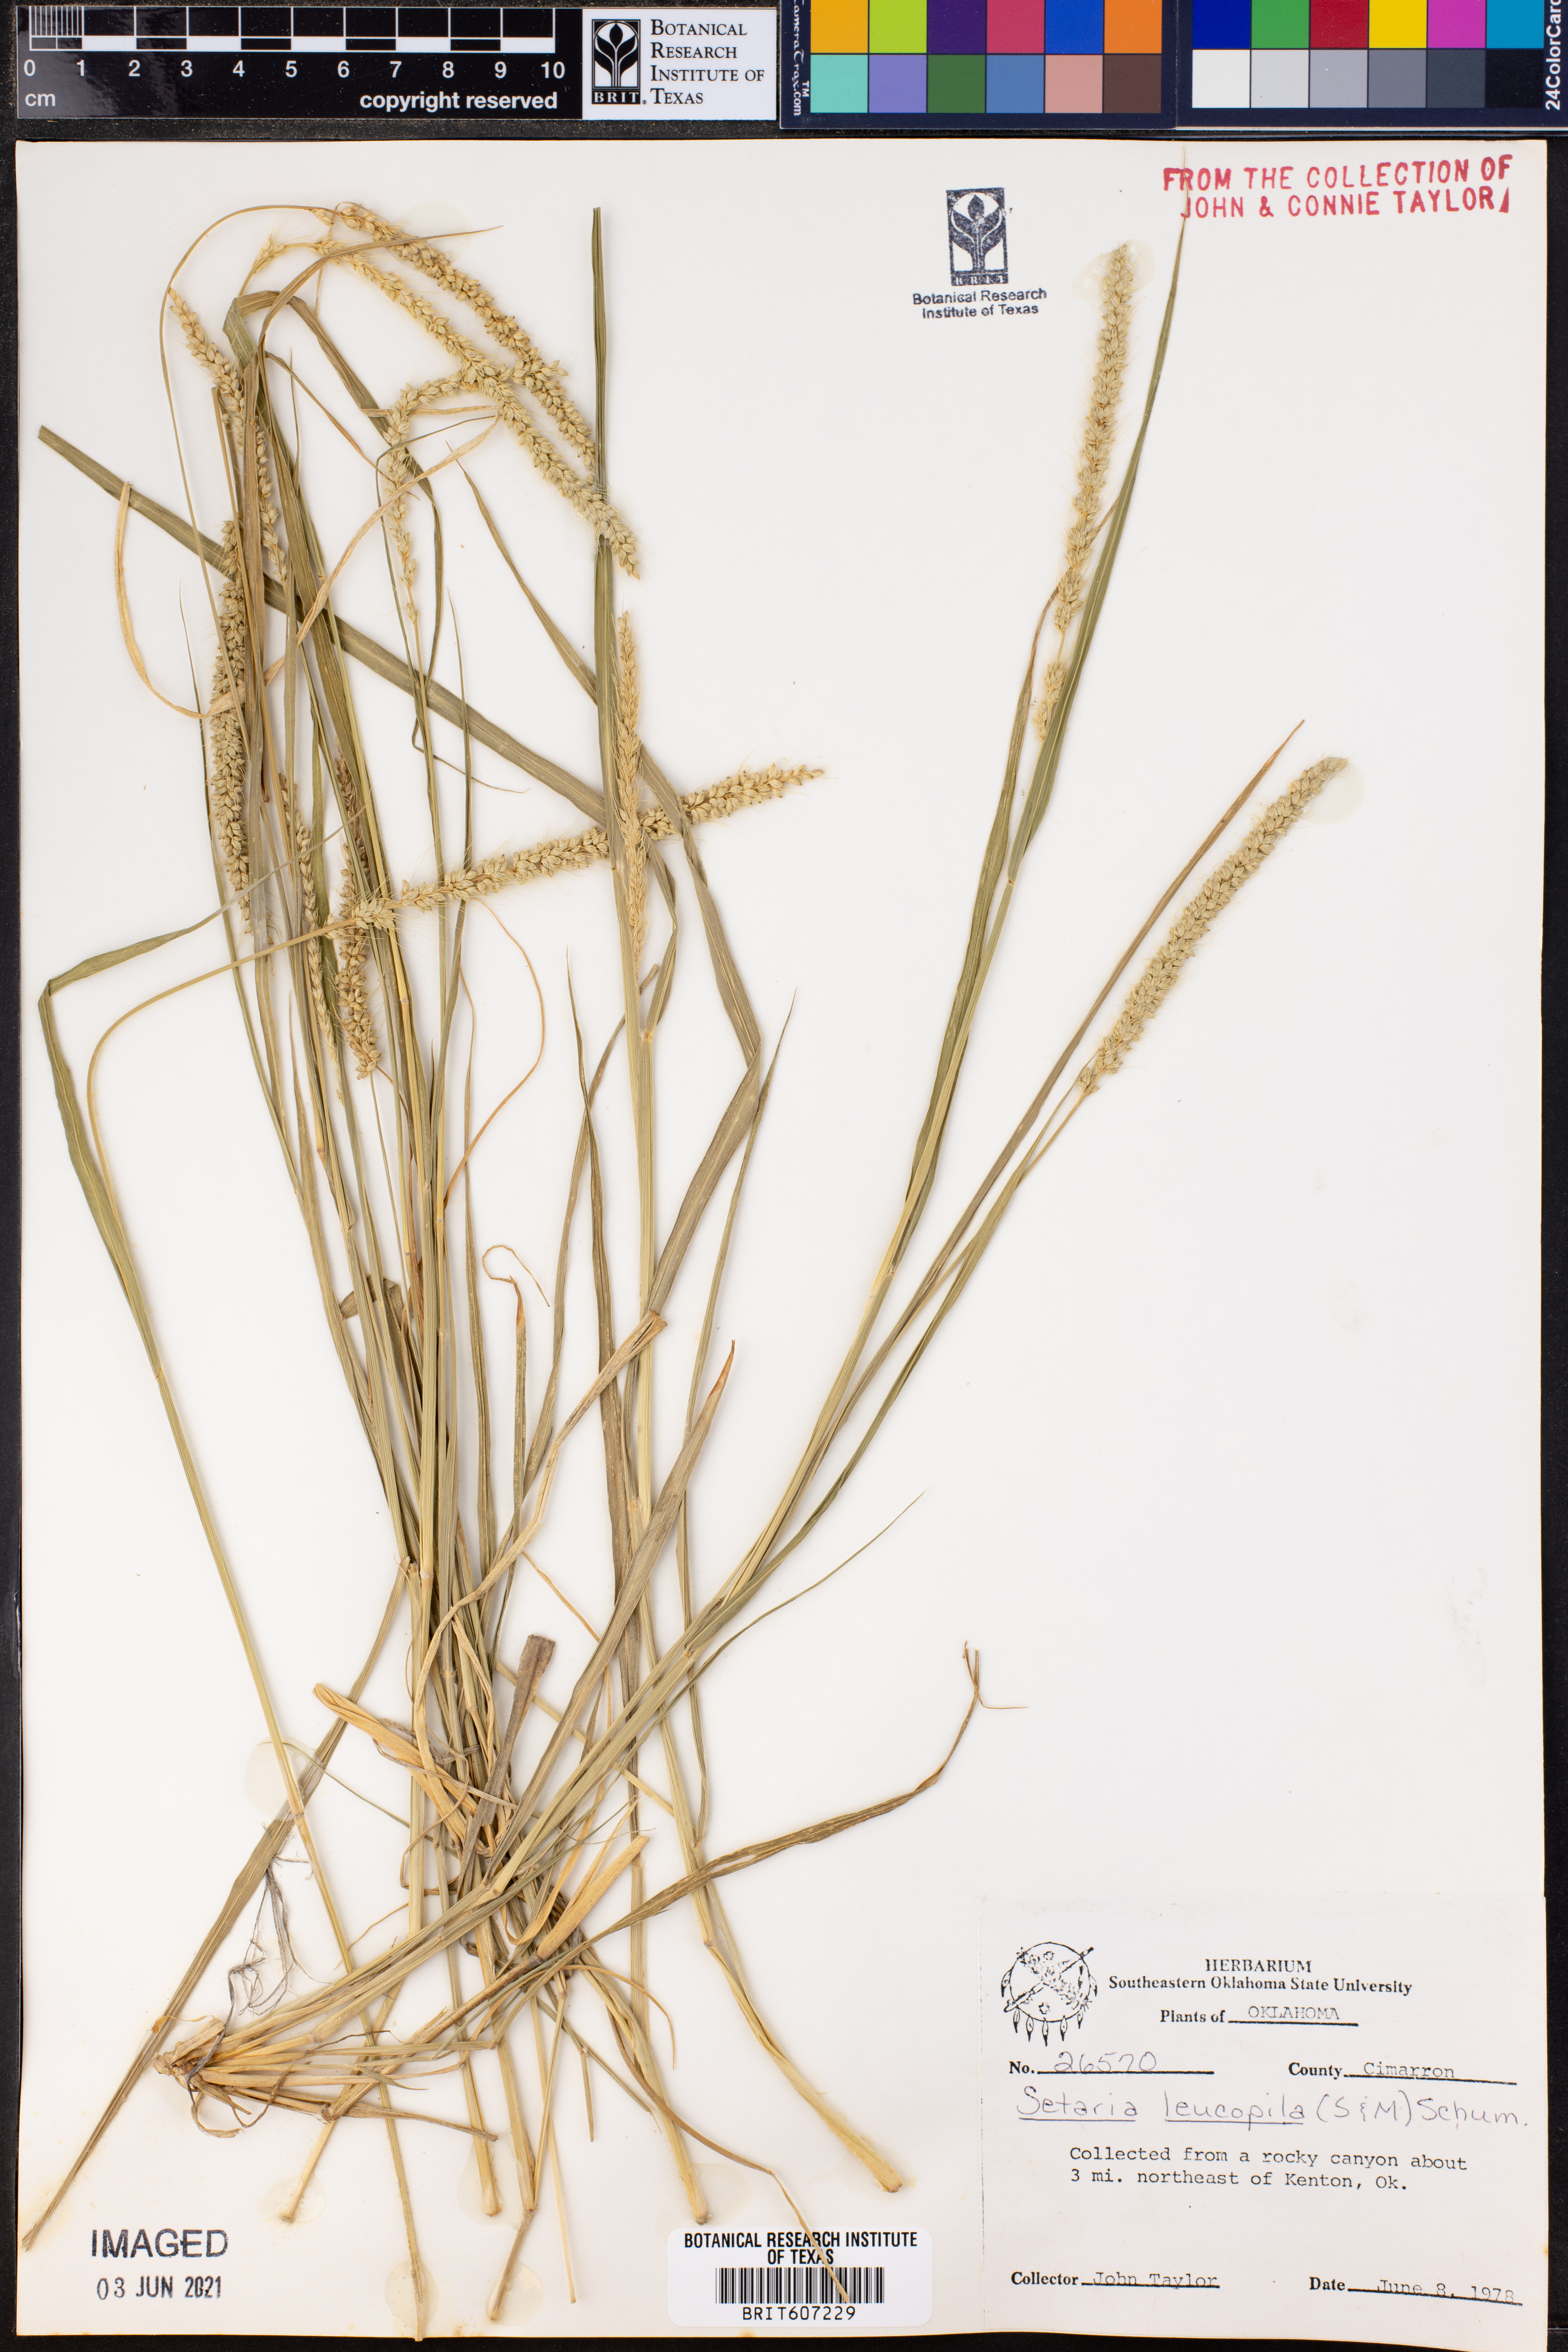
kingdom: Plantae
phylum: Tracheophyta
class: Liliopsida
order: Poales
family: Poaceae
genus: Setaria
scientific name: Setaria leucopila
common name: Plains bristle grass
